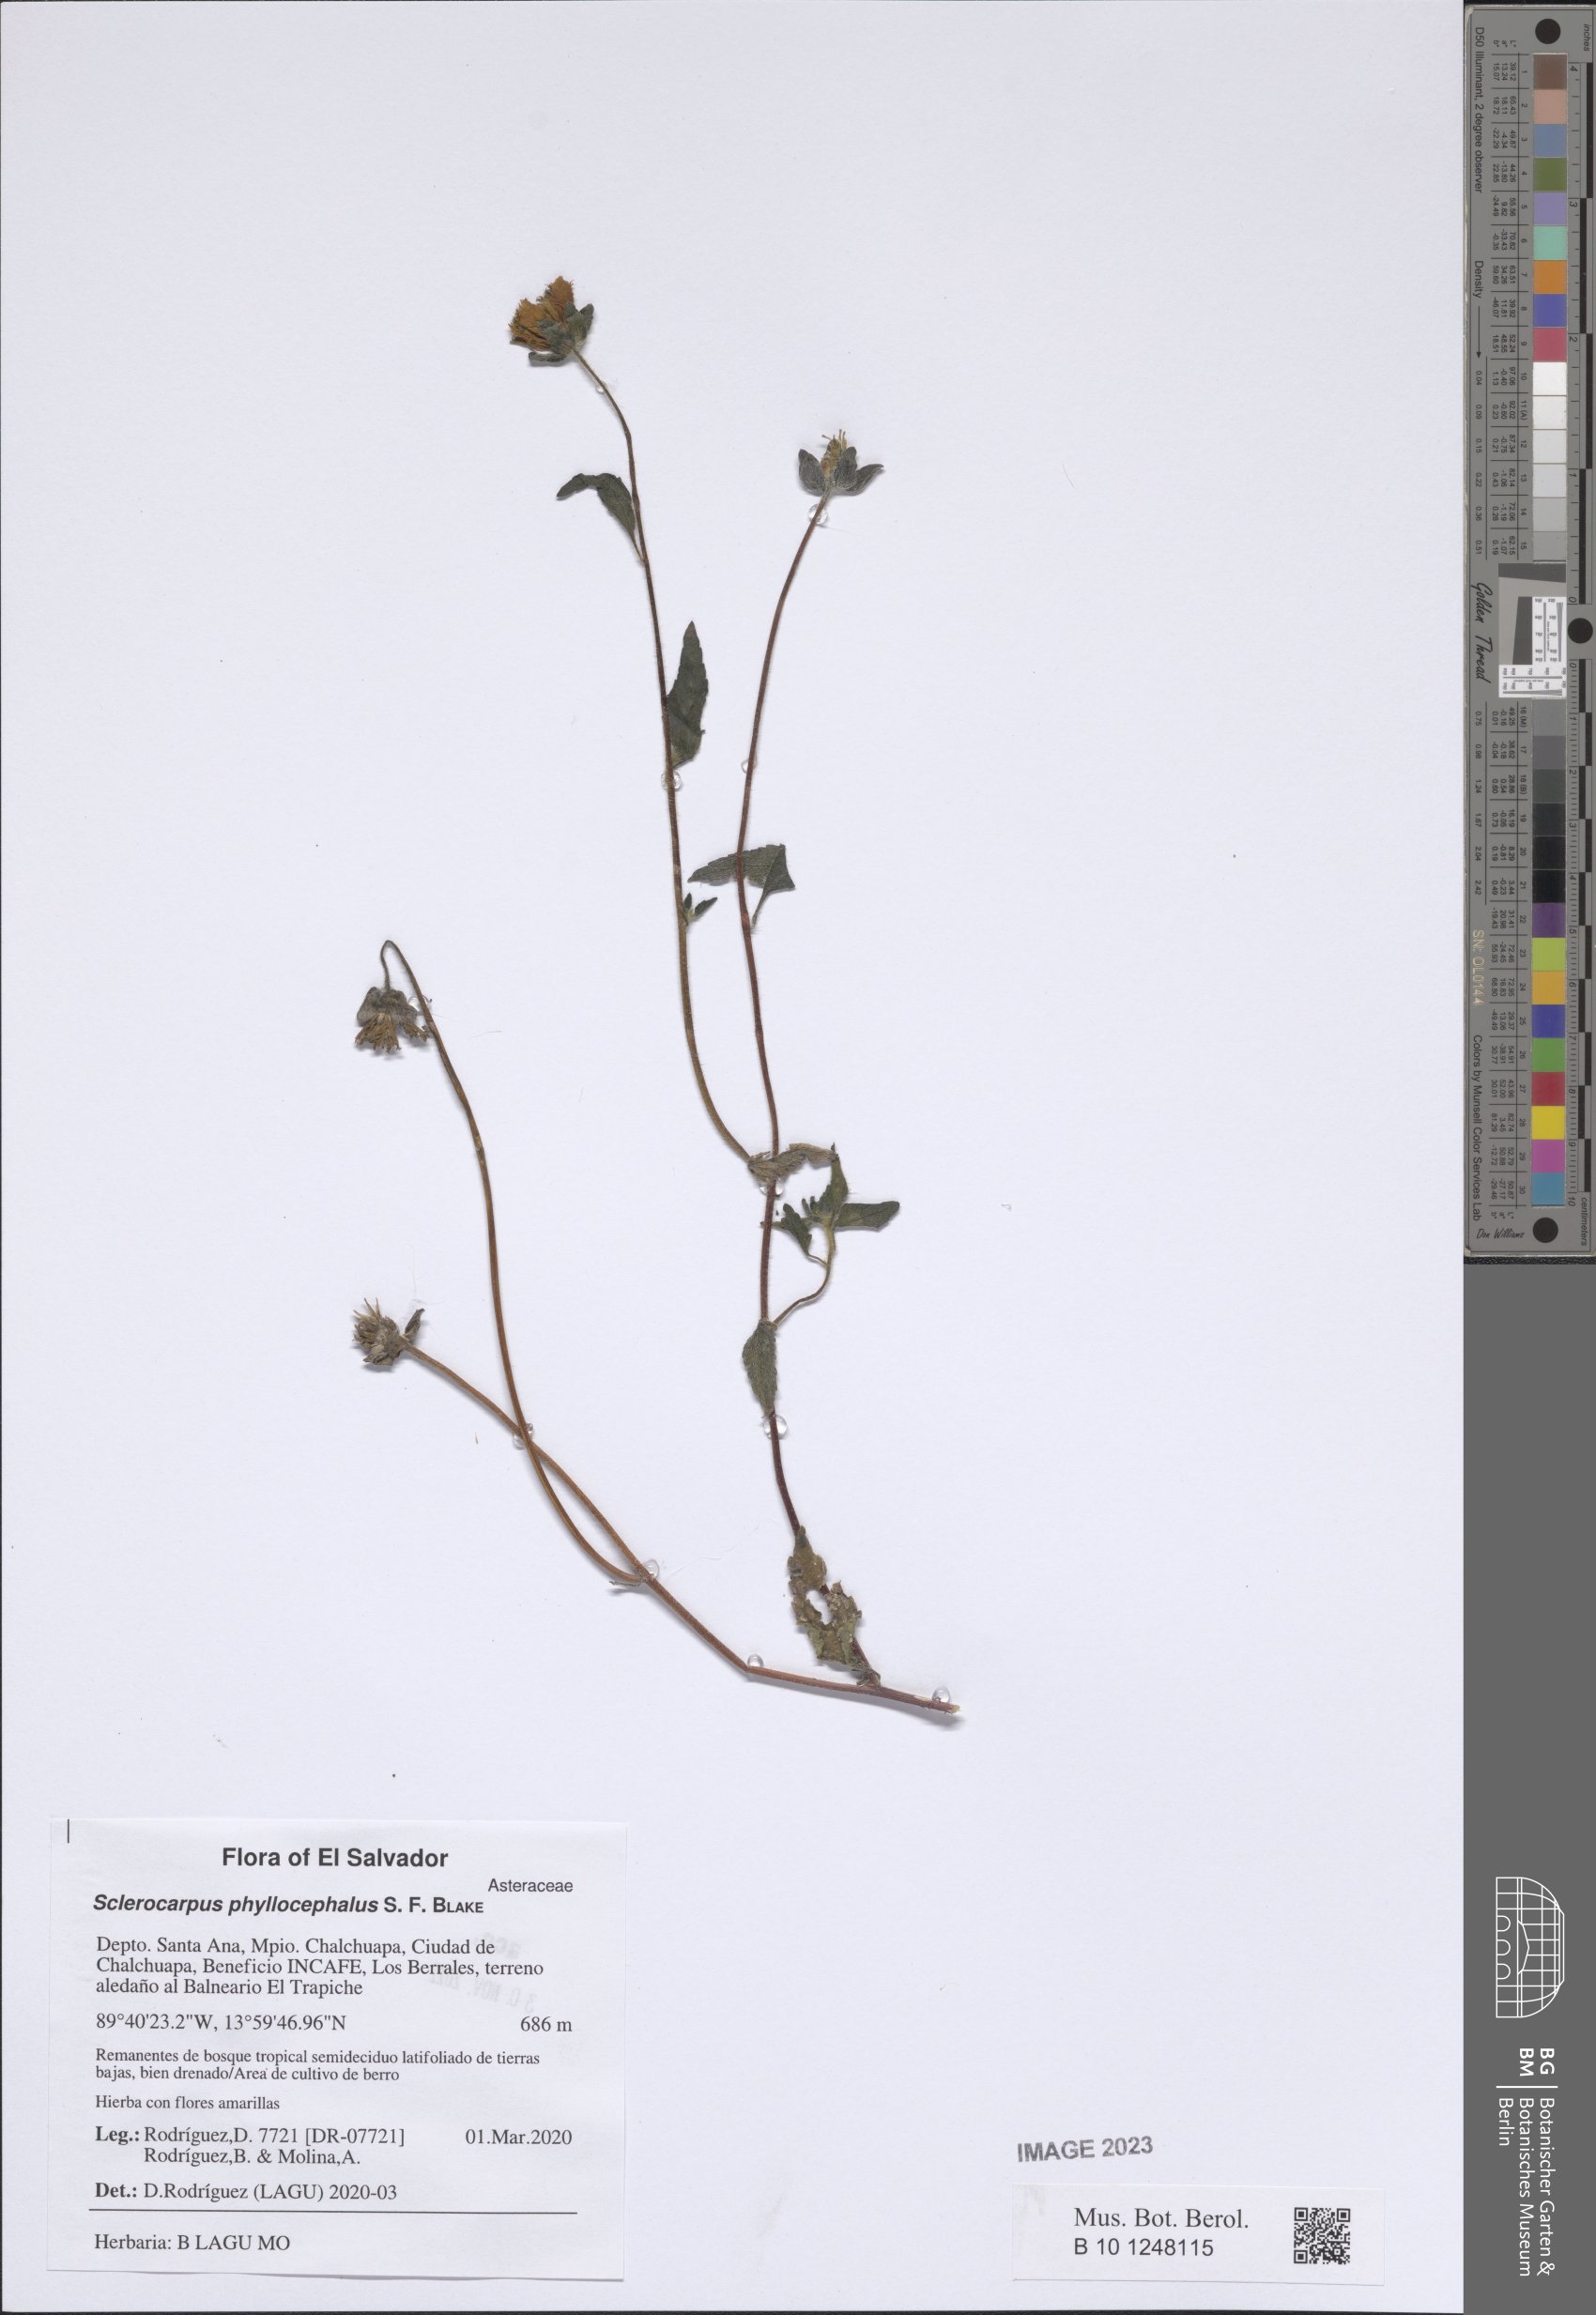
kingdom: Plantae
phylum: Tracheophyta
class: Magnoliopsida
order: Asterales
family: Asteraceae
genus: Sclerocarpus
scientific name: Sclerocarpus phyllocephalus
